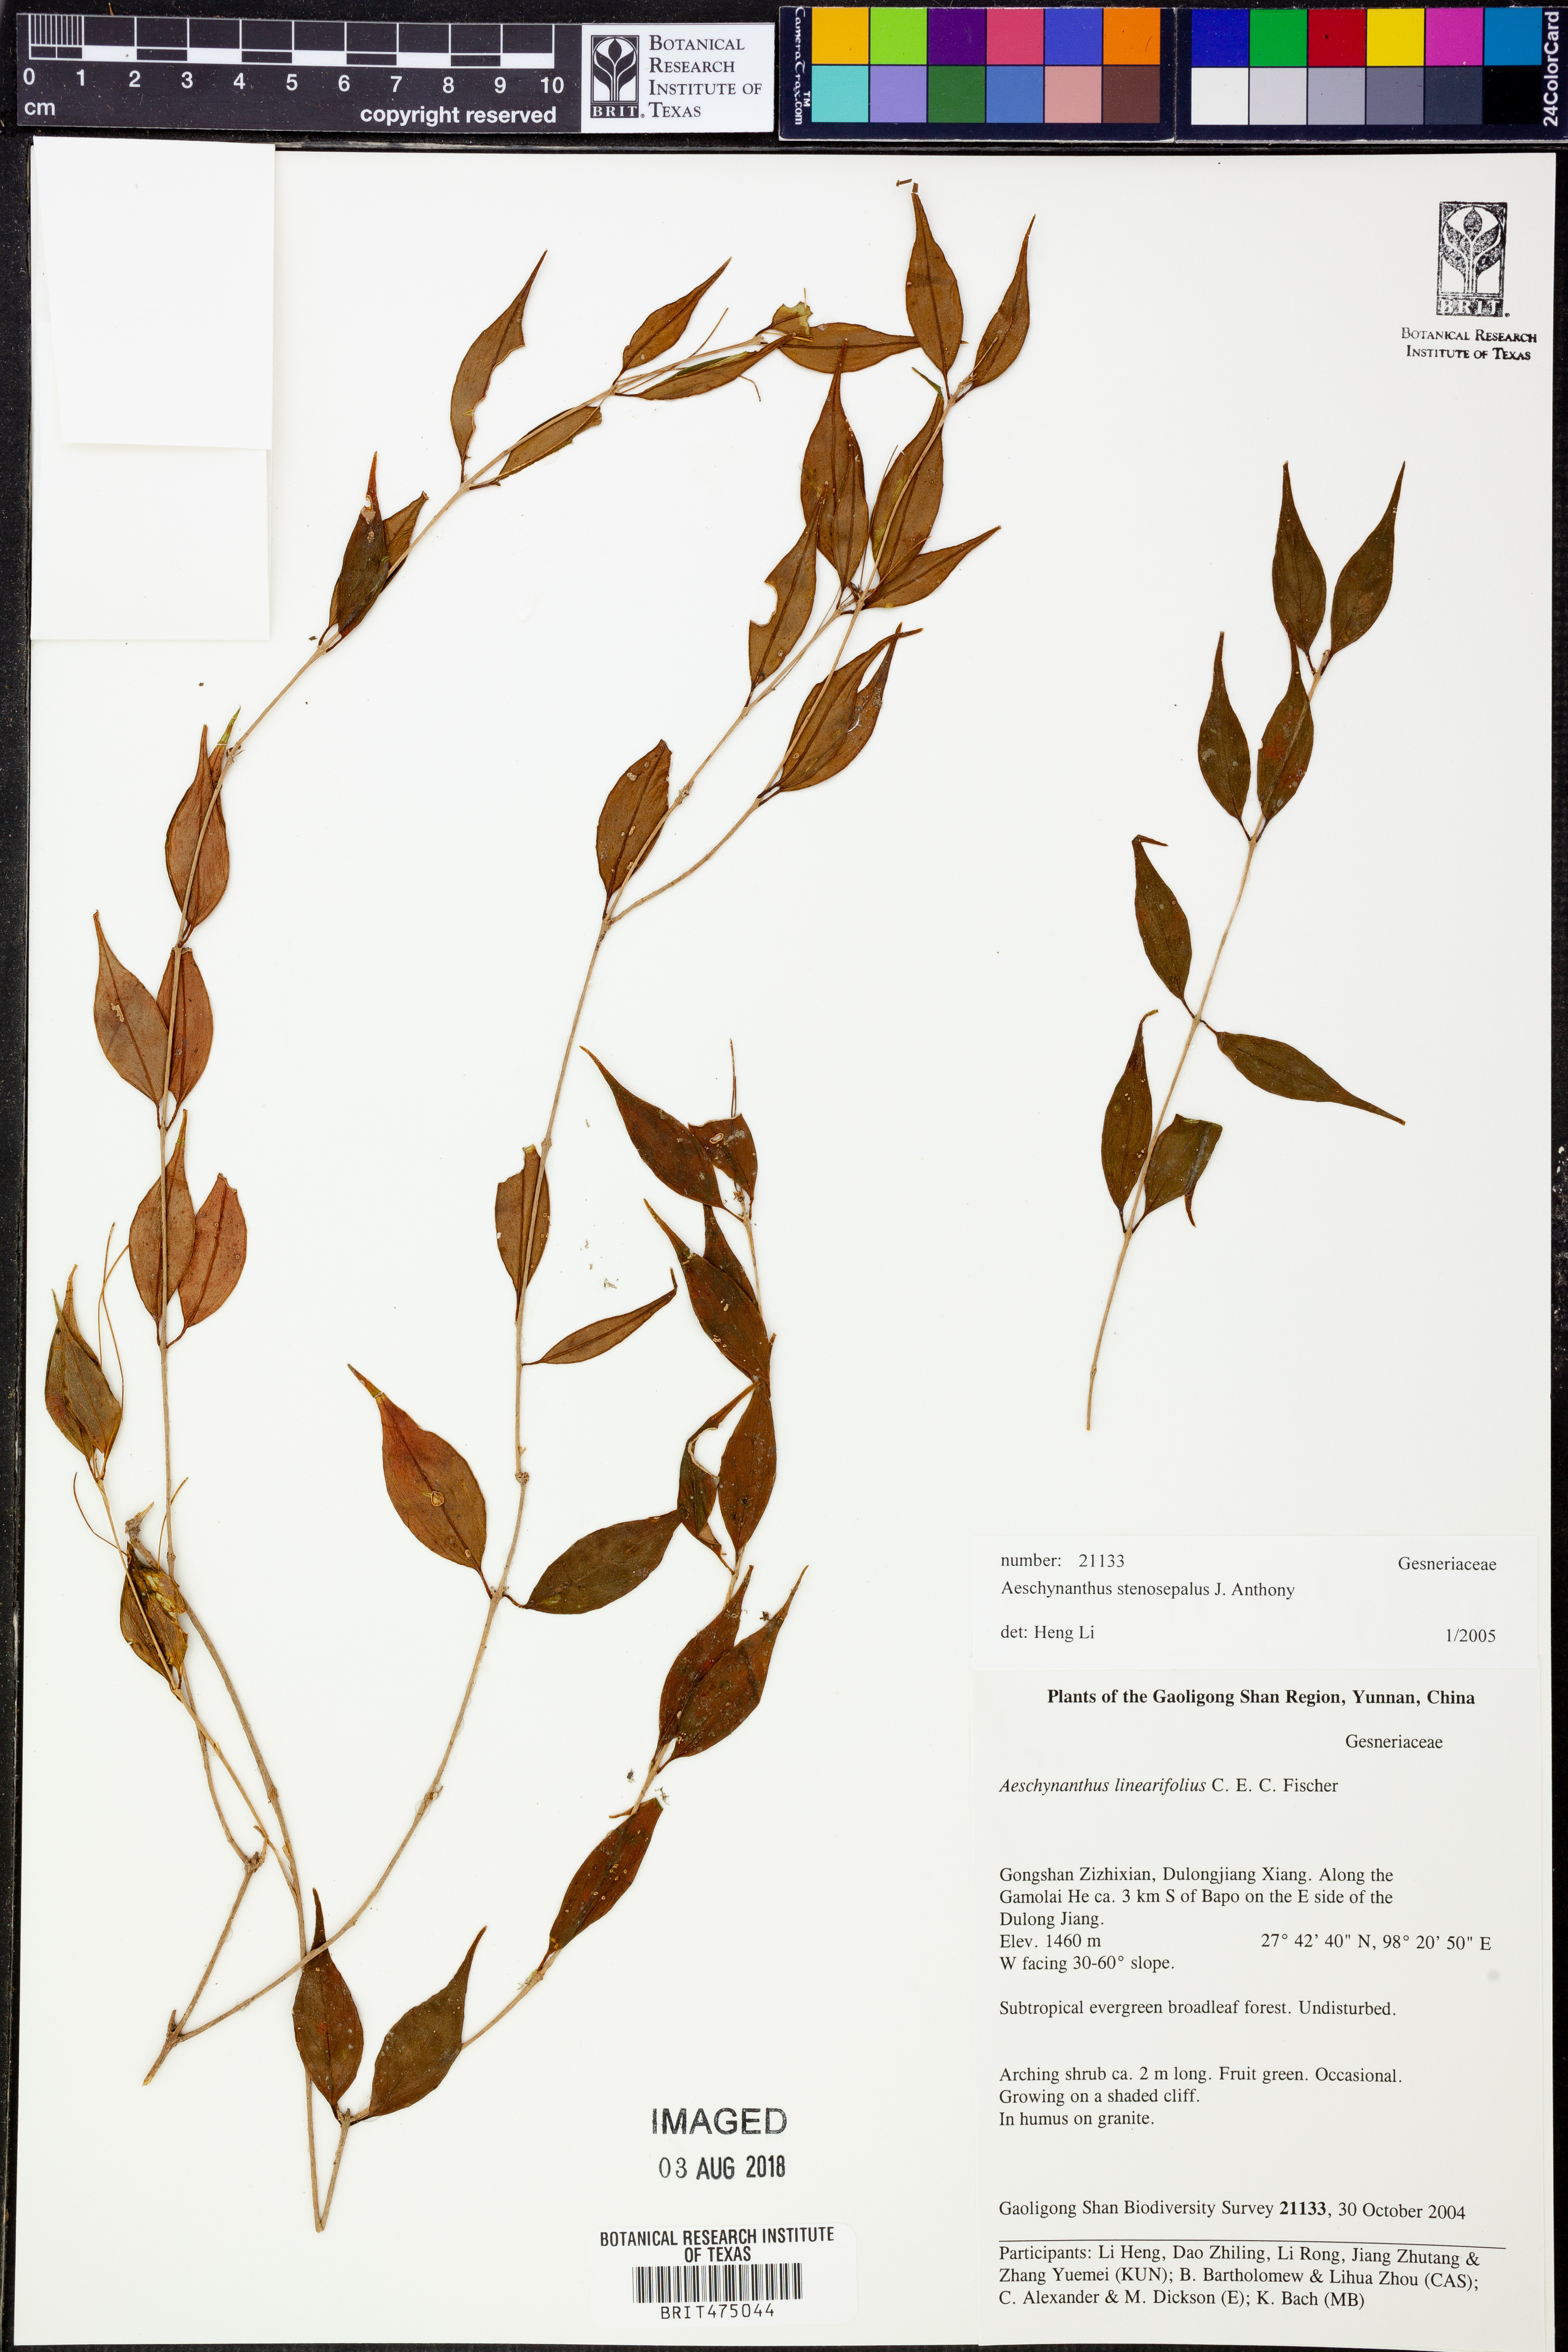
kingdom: Plantae
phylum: Tracheophyta
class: Magnoliopsida
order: Lamiales
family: Gesneriaceae
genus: Aeschynanthus
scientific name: Aeschynanthus stenosepalus
